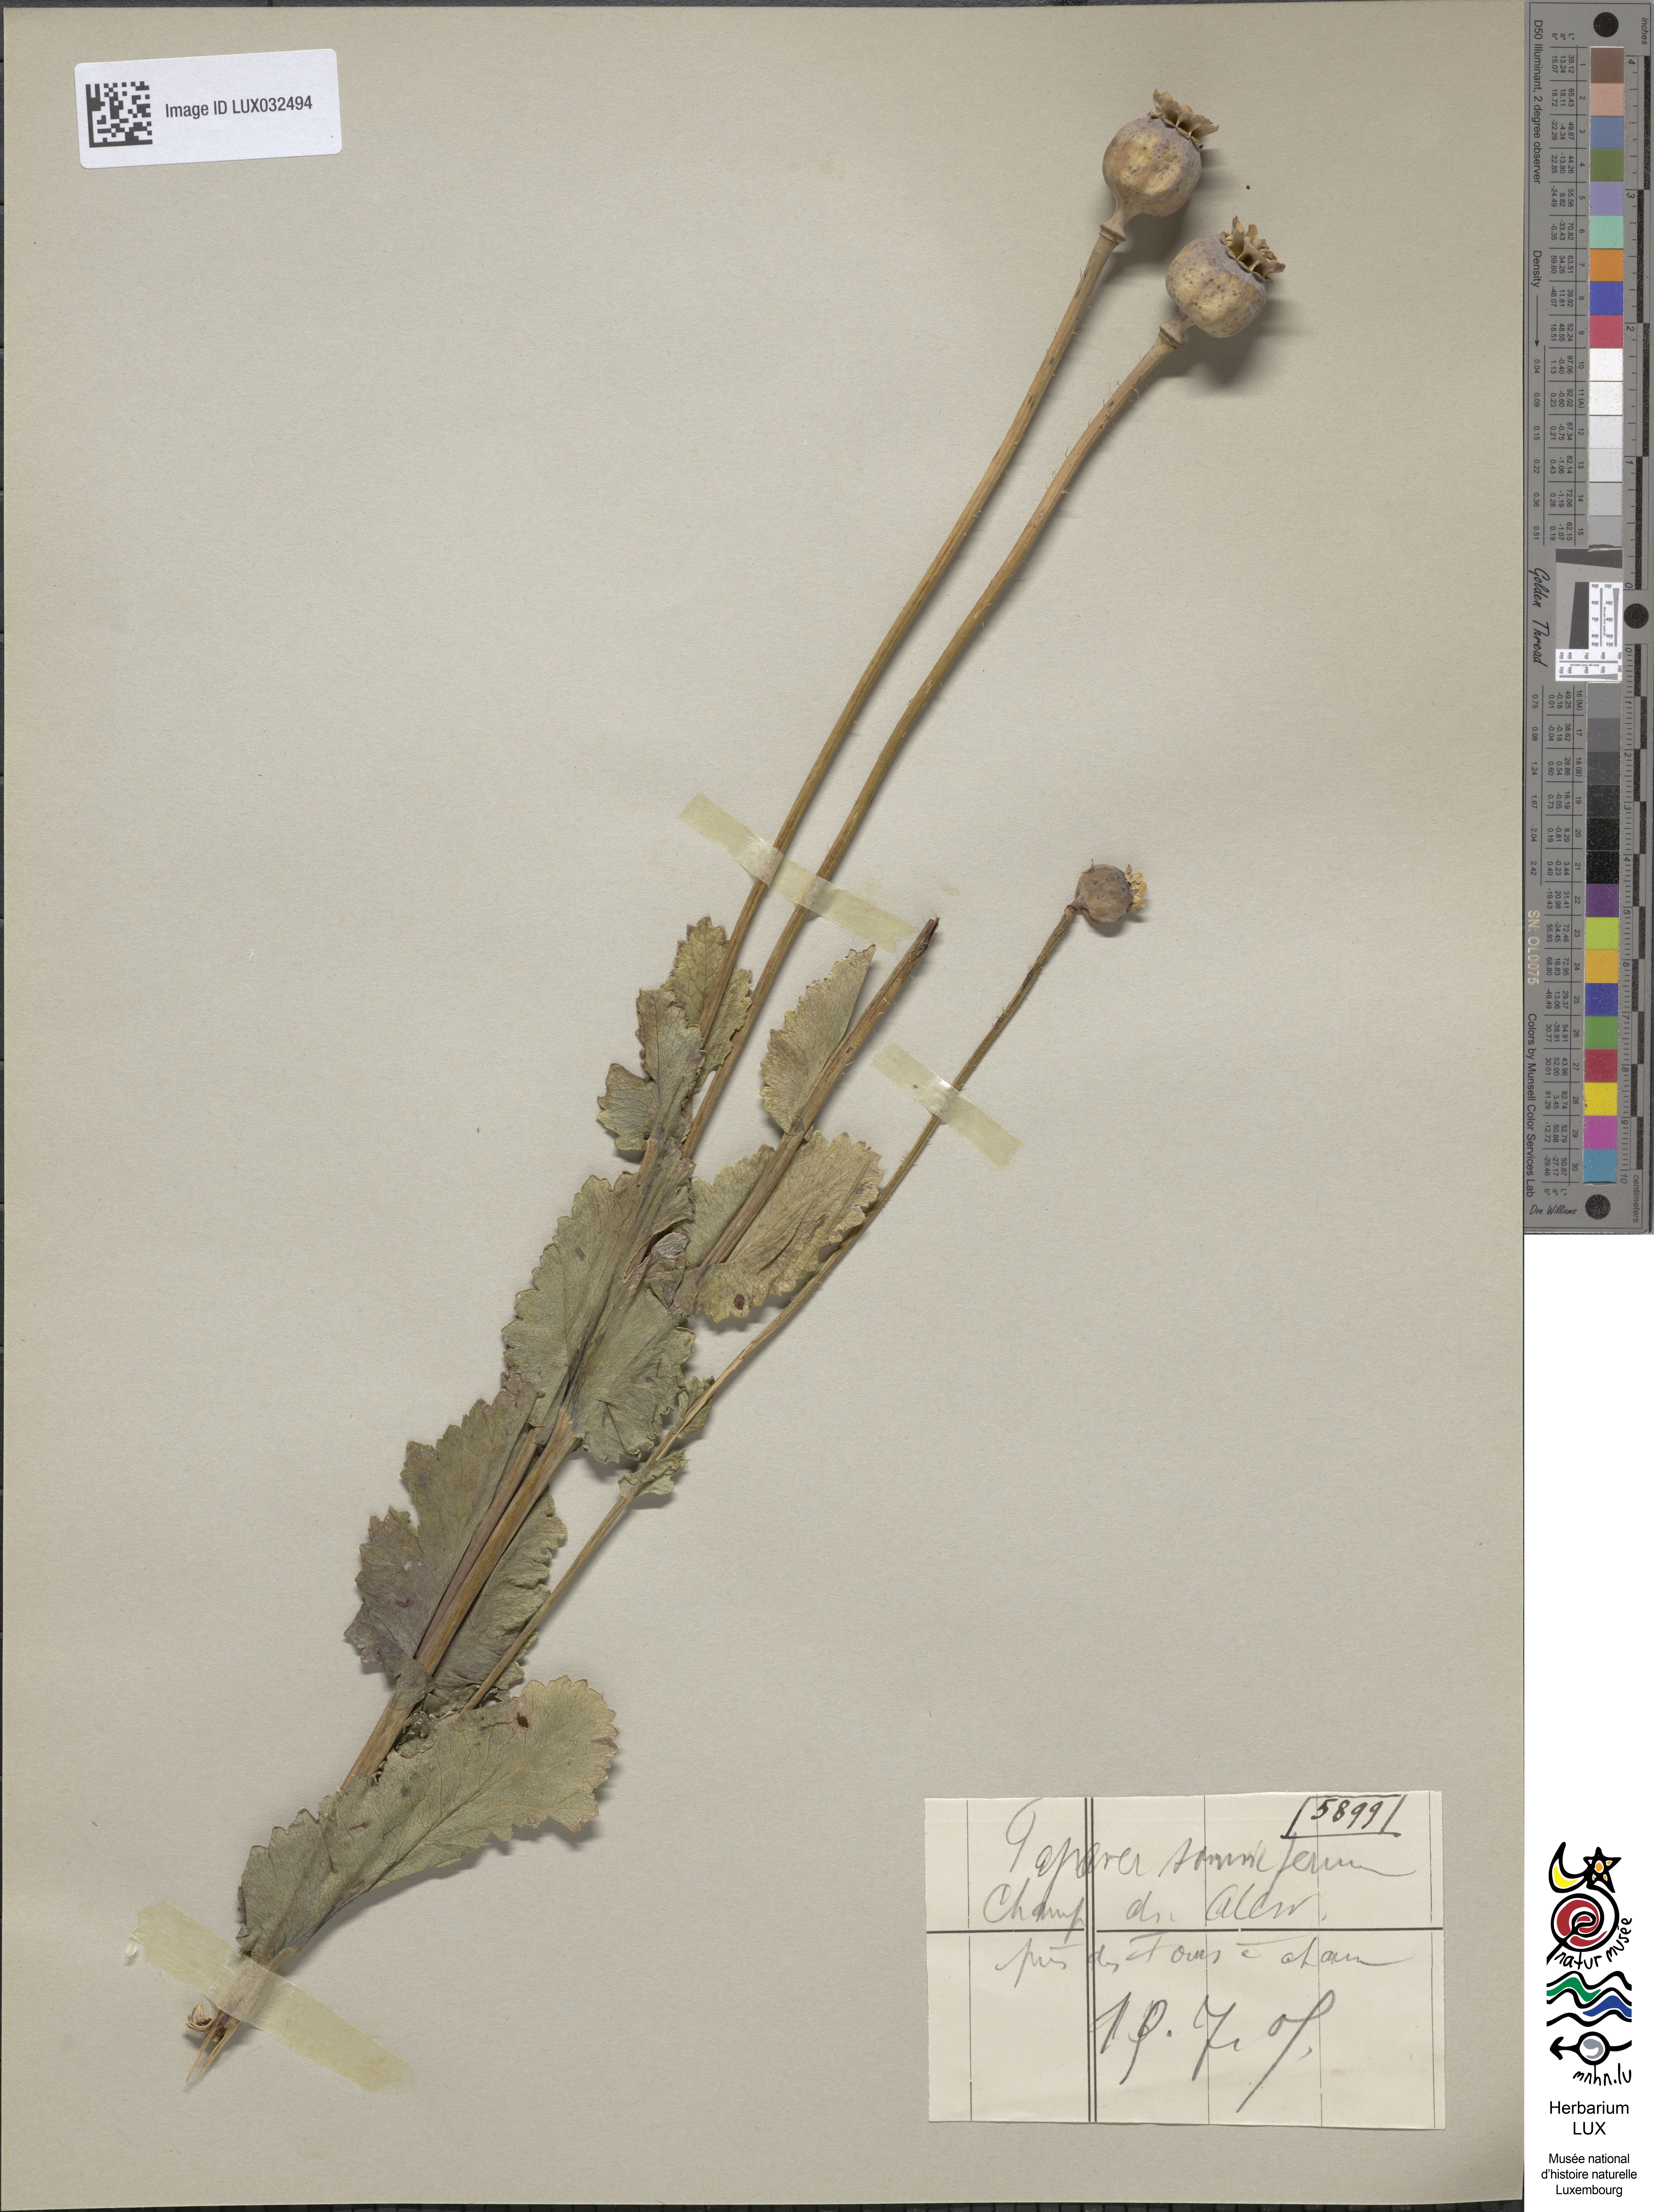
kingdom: Plantae
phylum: Tracheophyta
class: Magnoliopsida
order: Ranunculales
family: Papaveraceae
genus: Papaver
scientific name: Papaver somniferum
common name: Opium poppy
